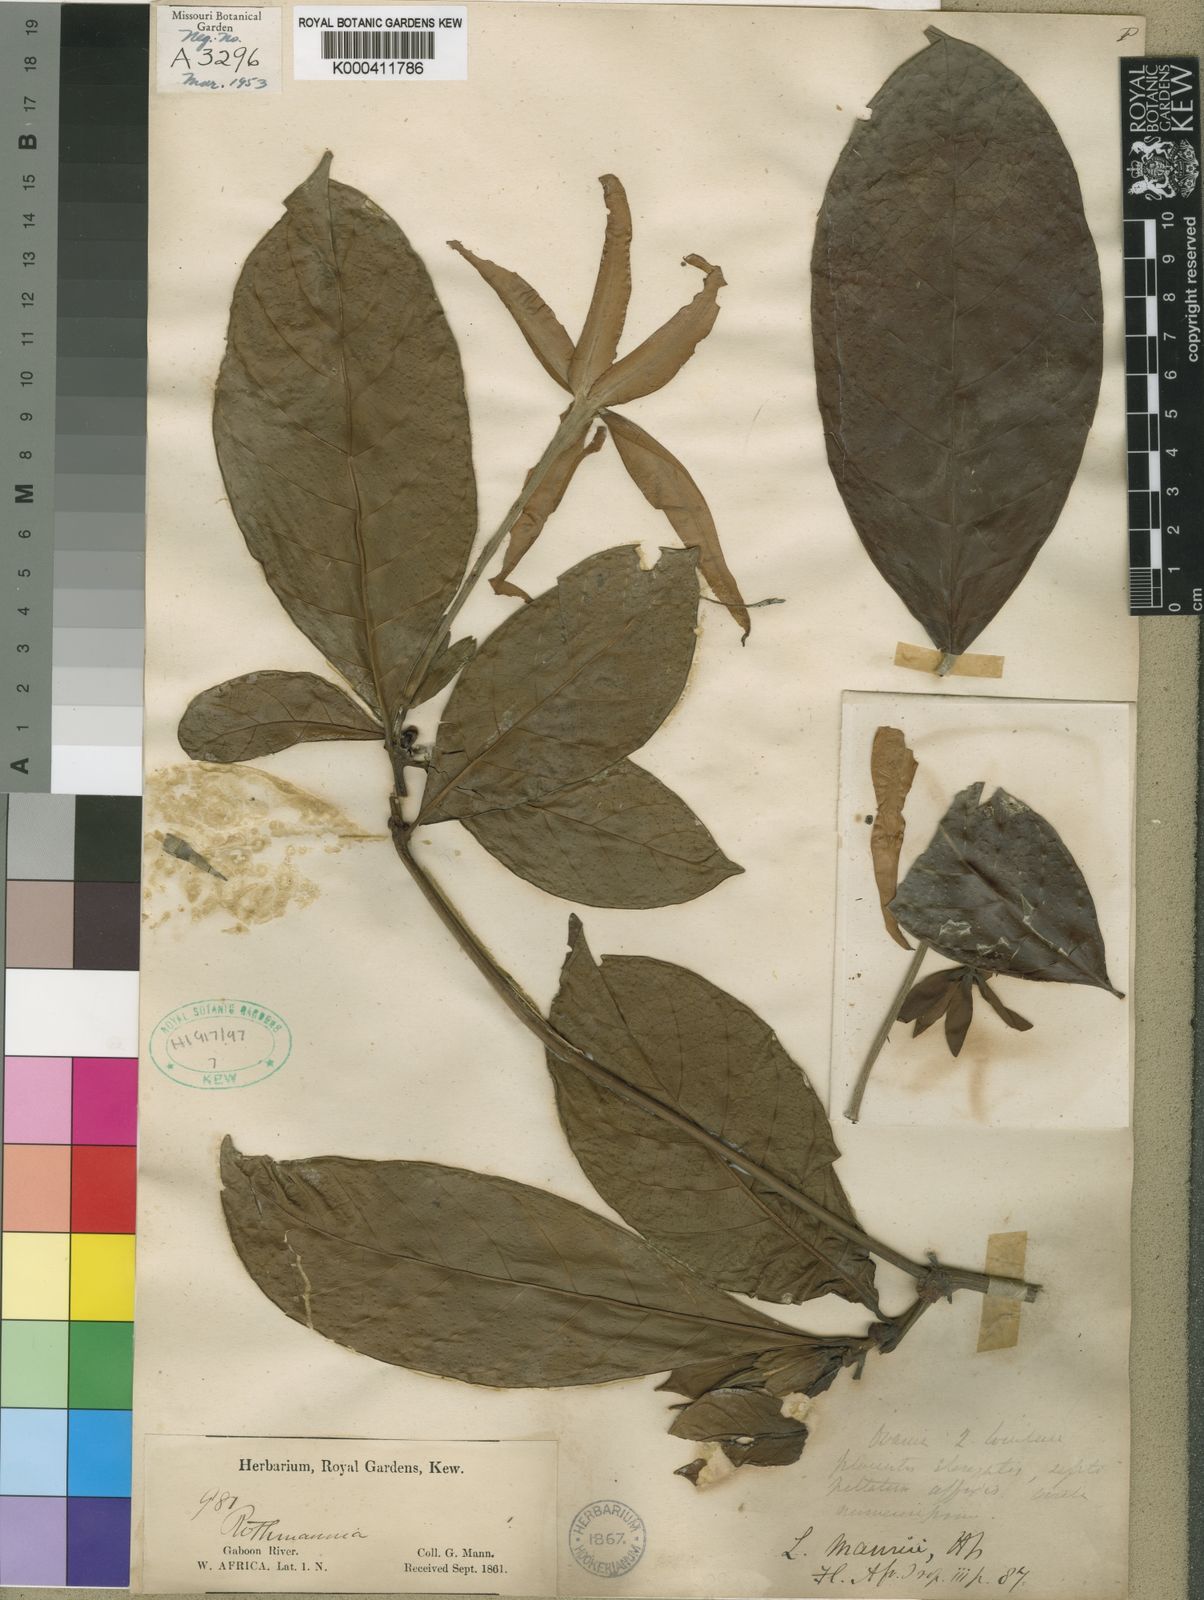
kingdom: Plantae
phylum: Tracheophyta
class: Magnoliopsida
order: Gentianales
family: Rubiaceae
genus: Leptactina
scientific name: Leptactina mannii
